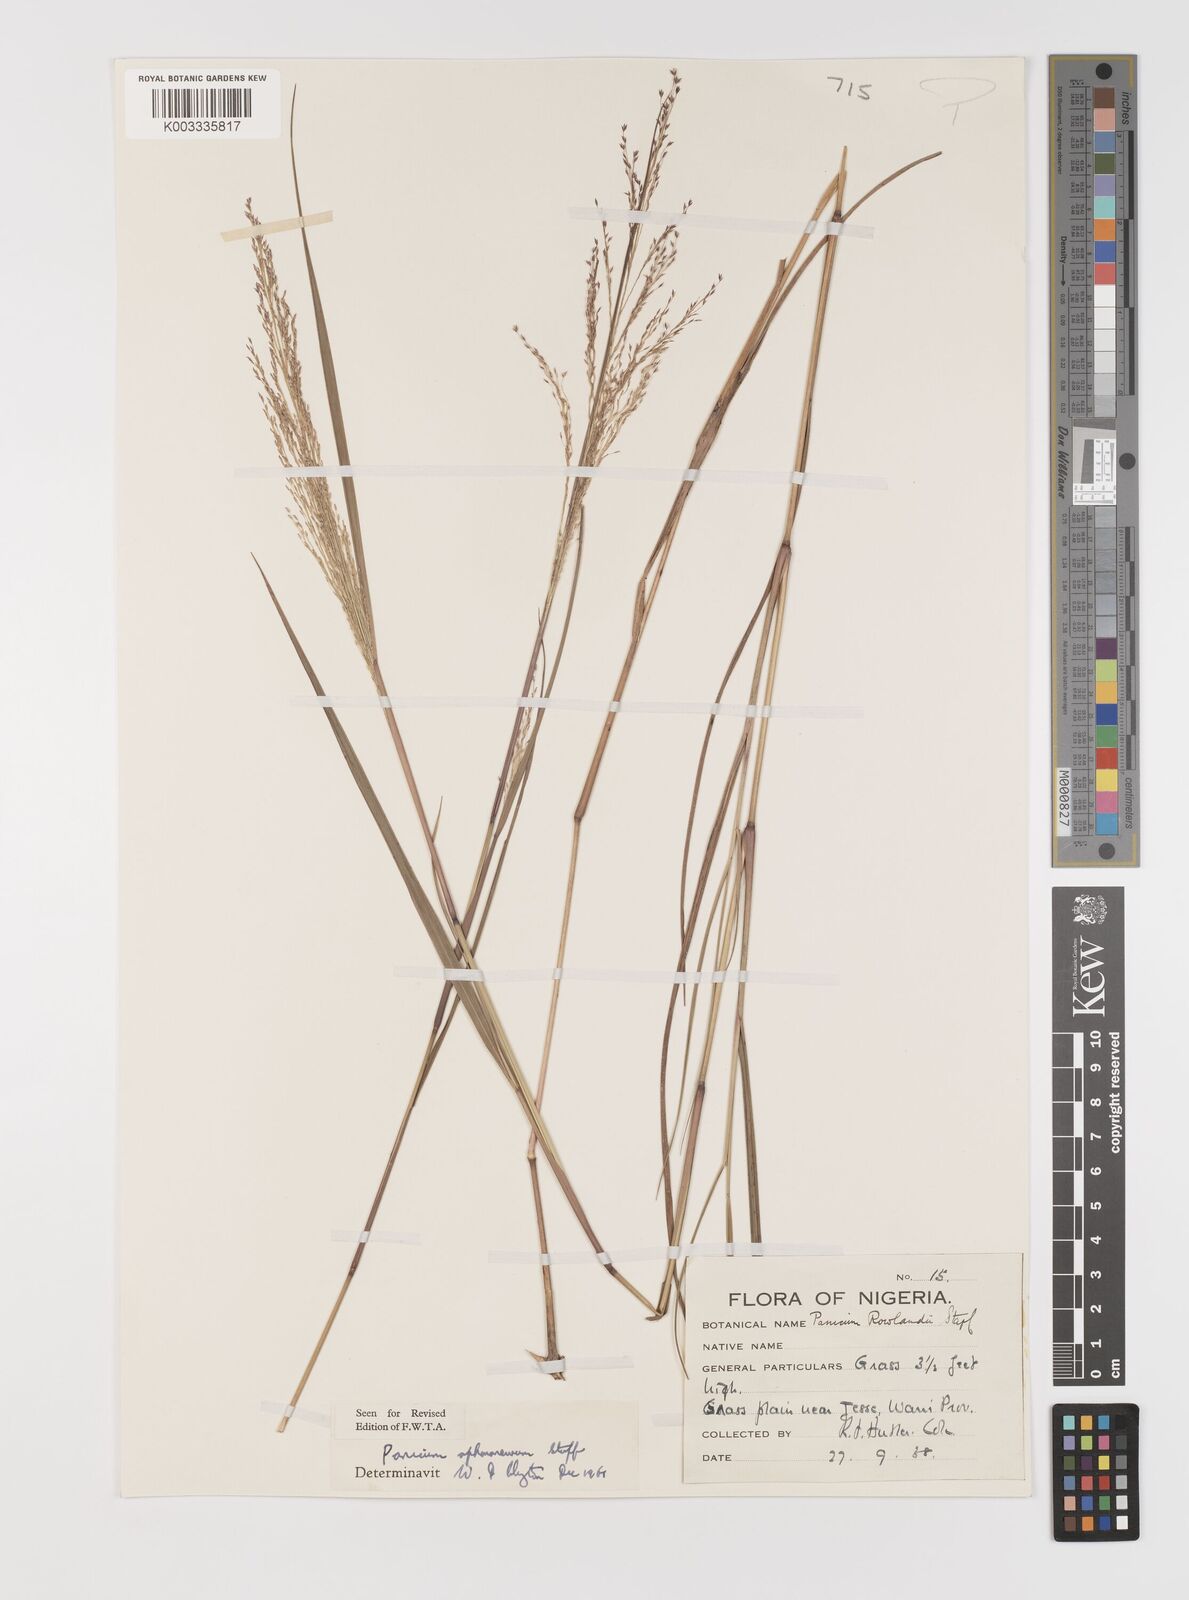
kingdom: Plantae
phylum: Tracheophyta
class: Liliopsida
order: Poales
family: Poaceae
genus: Panicum
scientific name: Panicum fluviicola
